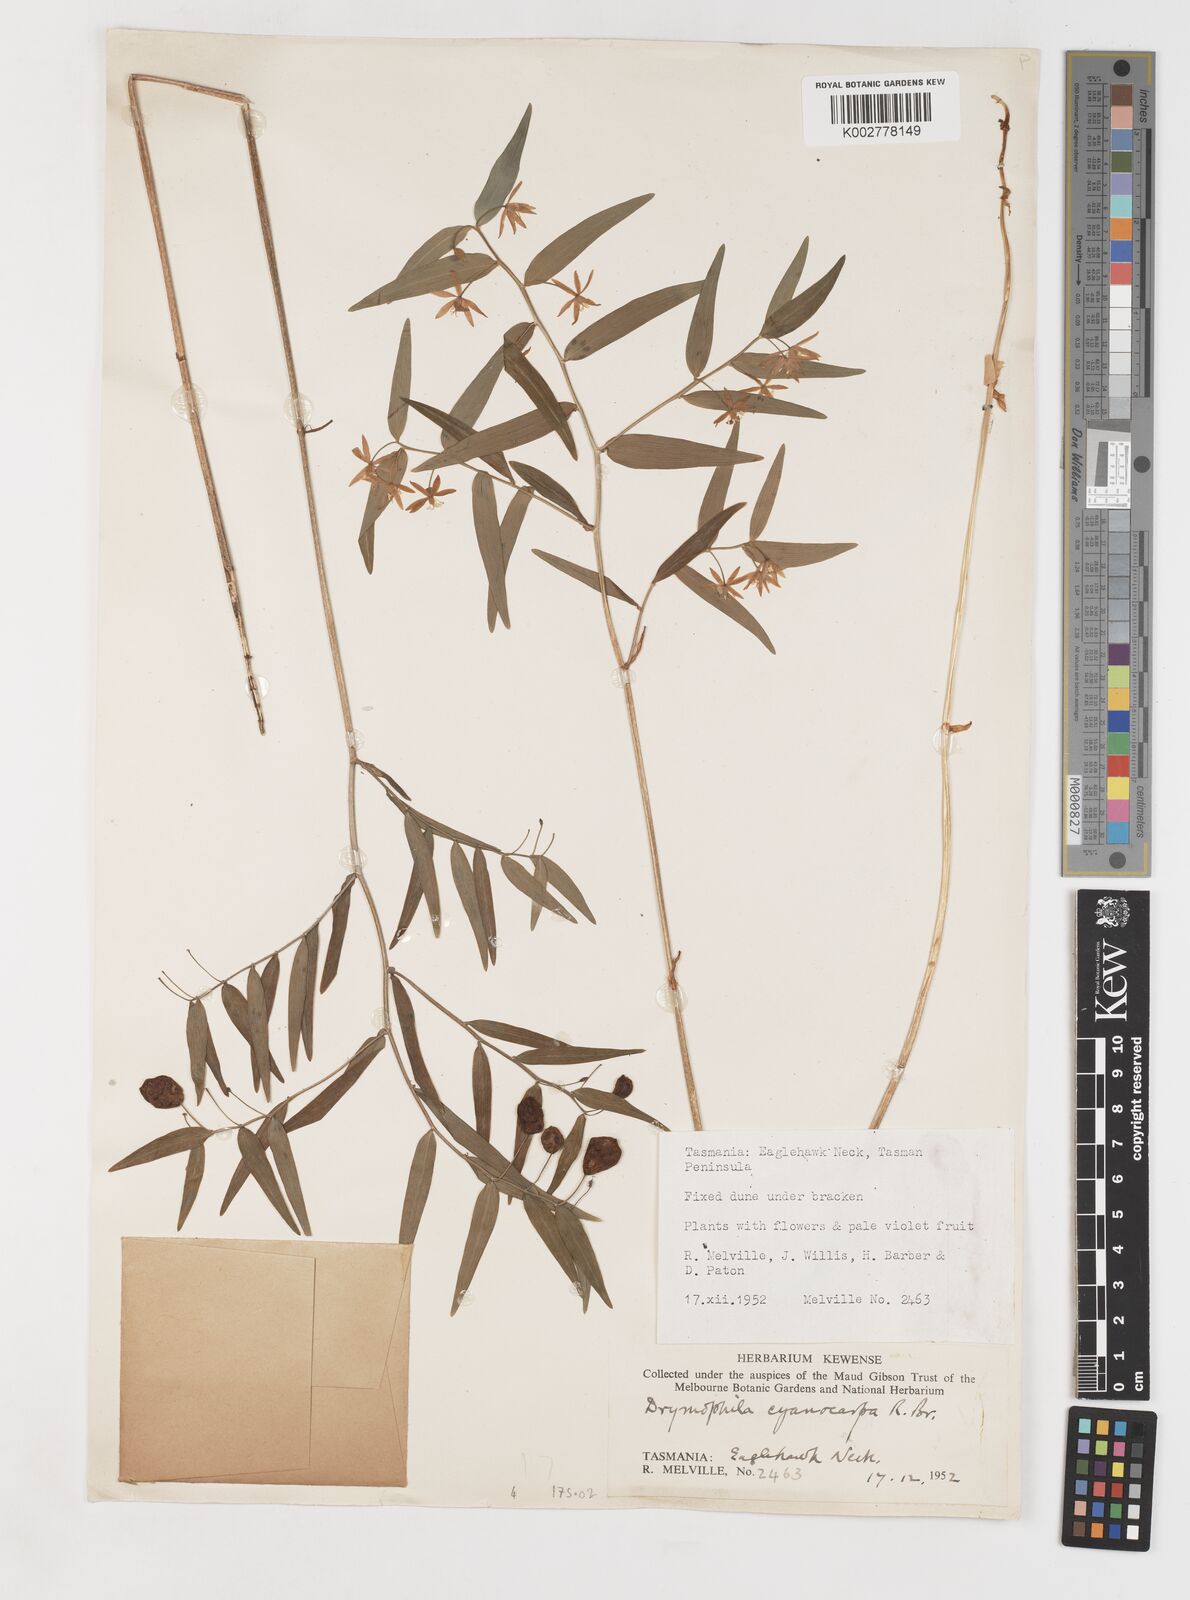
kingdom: Plantae
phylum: Tracheophyta
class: Liliopsida
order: Liliales
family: Alstroemeriaceae
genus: Drymophila
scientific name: Drymophila cyanocarpa
